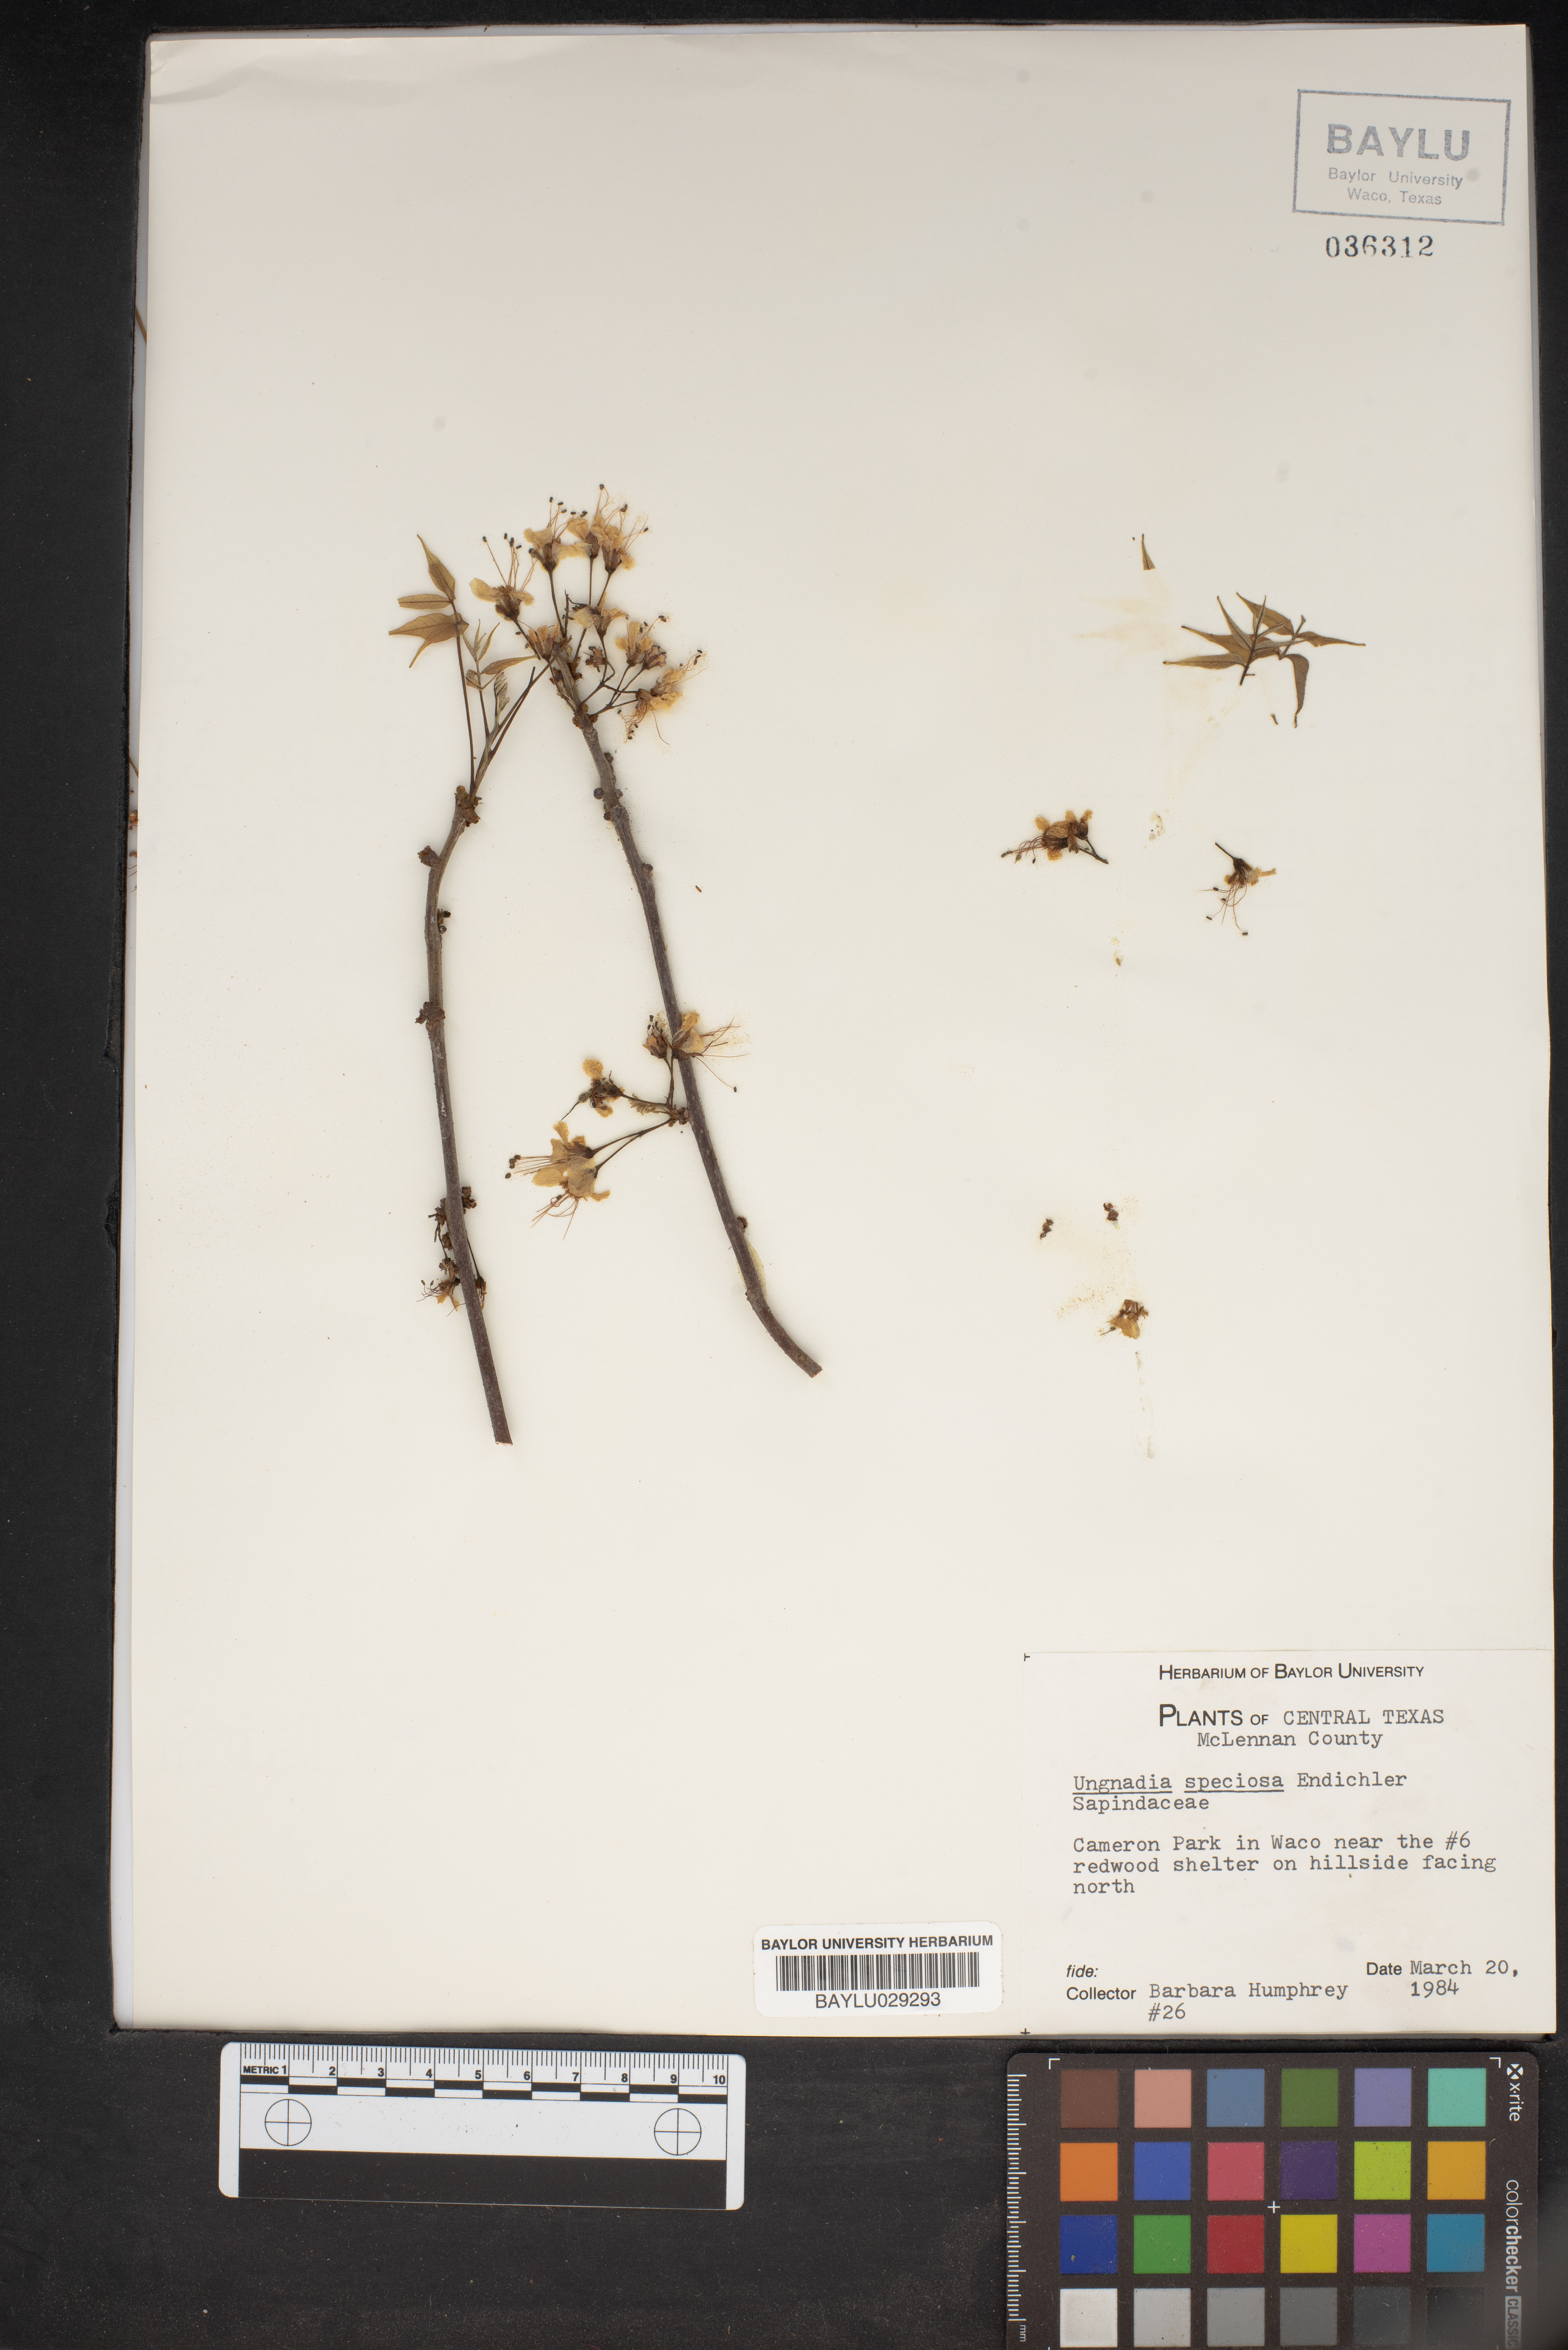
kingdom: Plantae
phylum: Tracheophyta
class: Magnoliopsida
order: Sapindales
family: Sapindaceae
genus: Ungnadia
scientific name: Ungnadia speciosa
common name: Texas-buckeye
